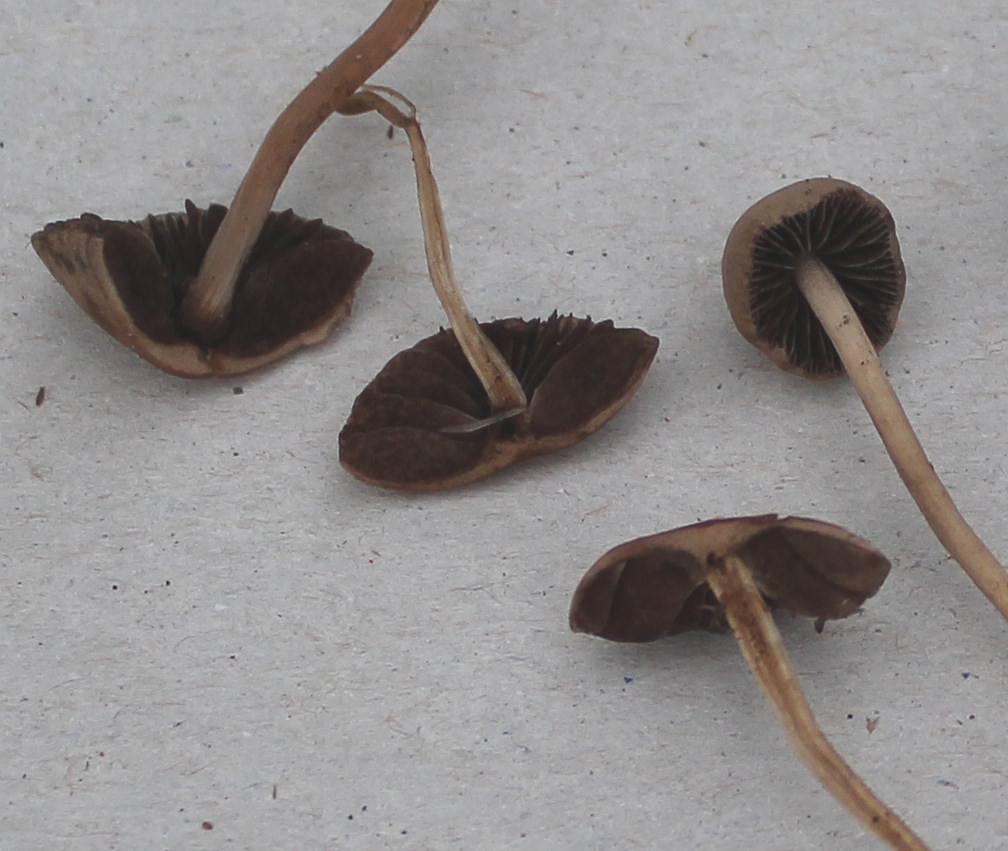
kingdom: Fungi
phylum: Basidiomycota
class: Agaricomycetes
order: Agaricales
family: Bolbitiaceae
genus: Panaeolina
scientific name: Panaeolina foenisecii
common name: høslætsvamp
